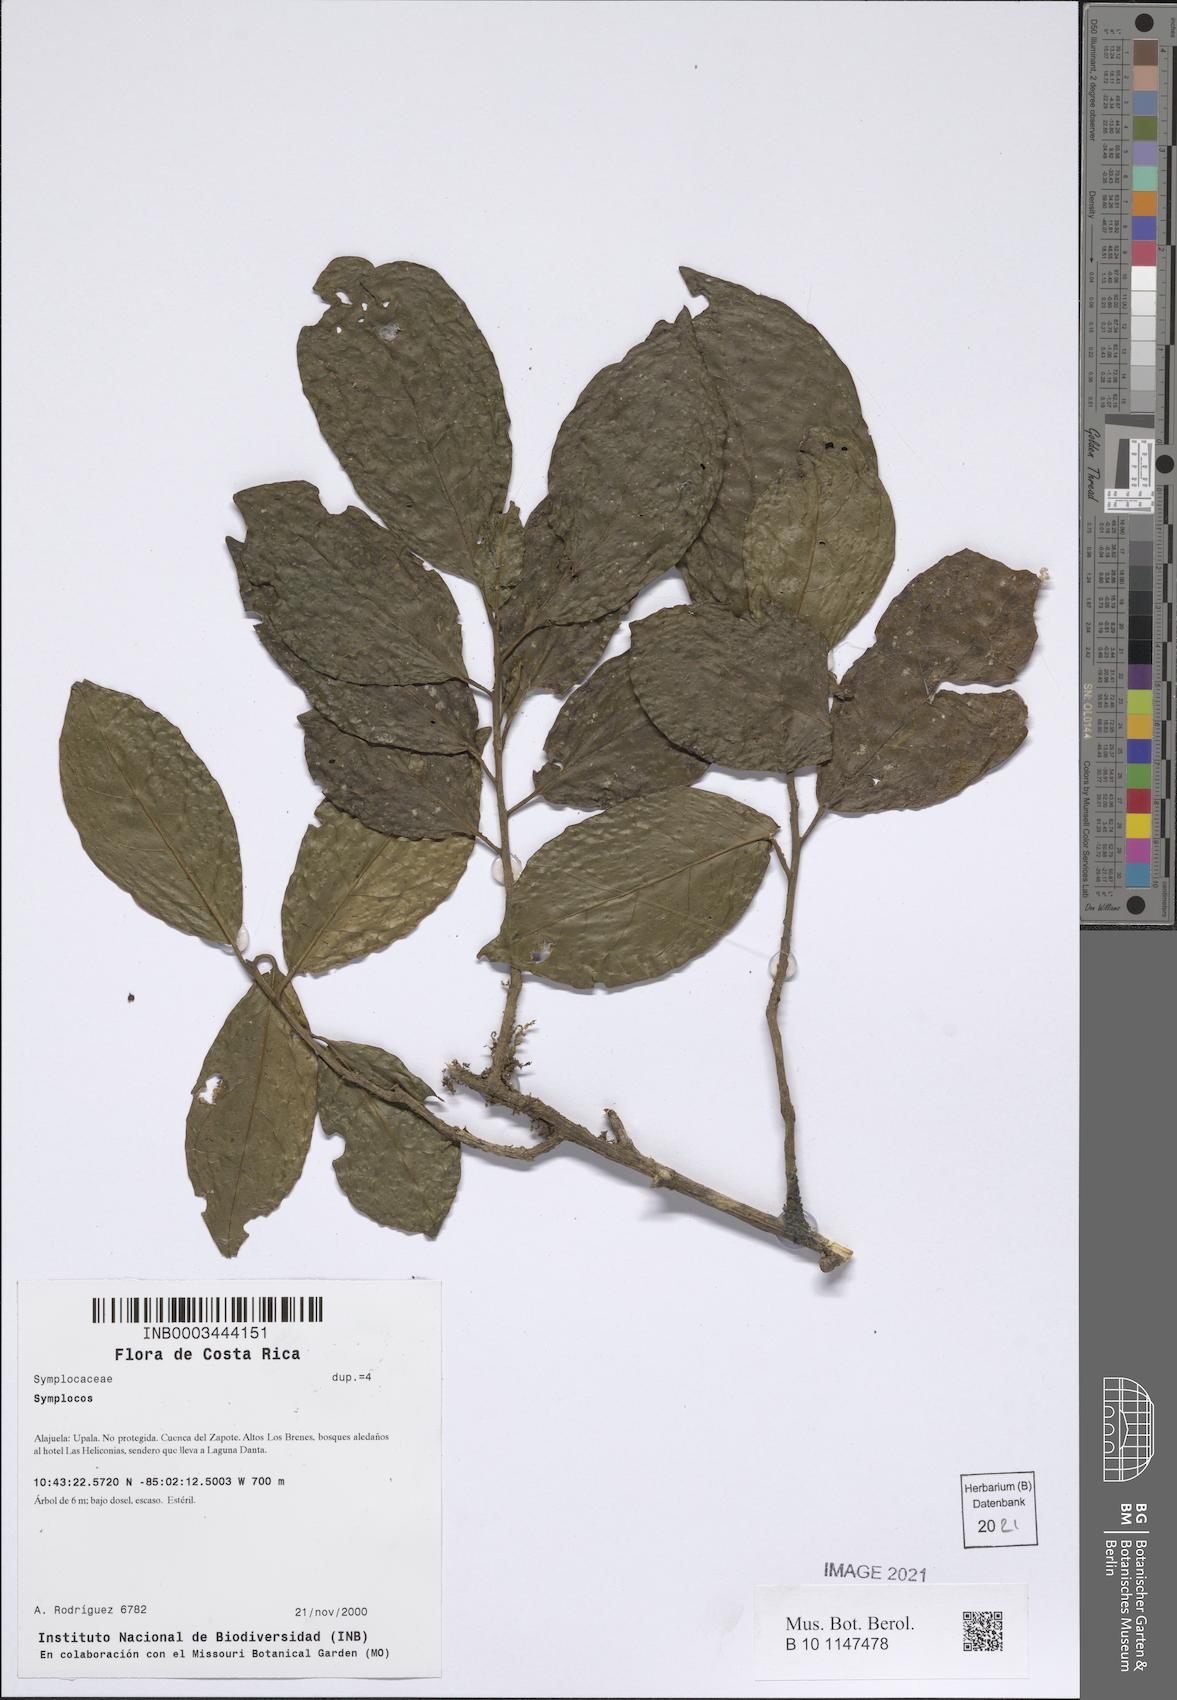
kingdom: Plantae
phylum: Tracheophyta
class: Magnoliopsida
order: Ericales
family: Symplocaceae
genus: Symplocos
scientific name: Symplocos
